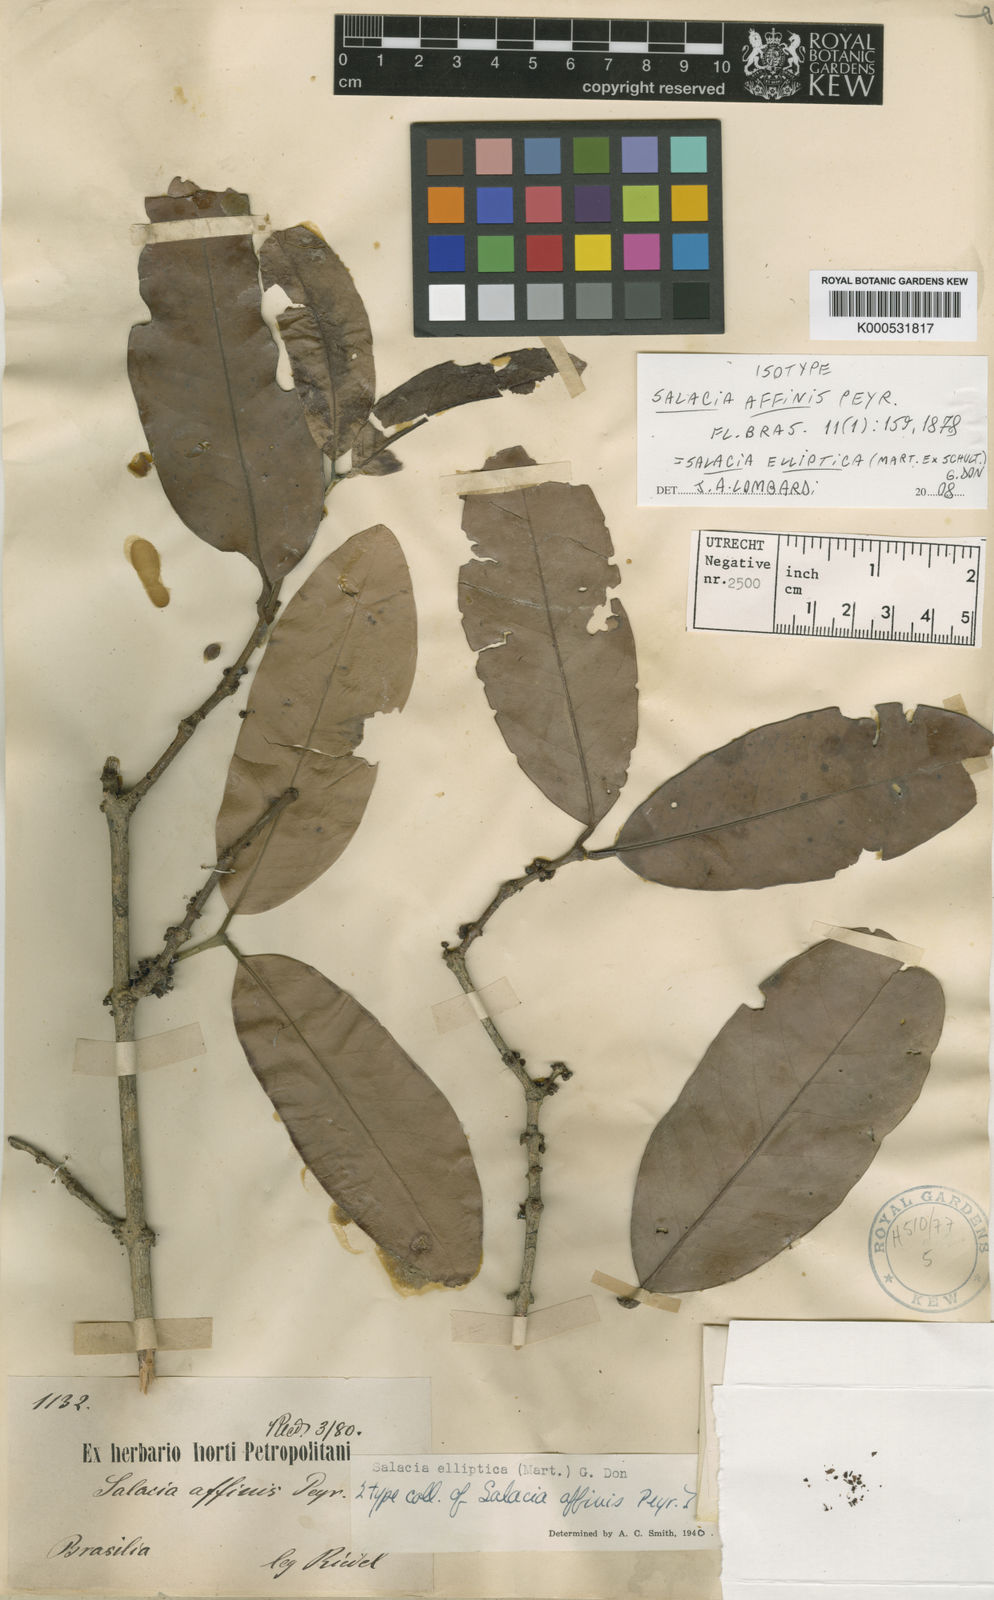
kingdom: Plantae
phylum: Tracheophyta
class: Magnoliopsida
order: Celastrales
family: Celastraceae
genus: Salacia
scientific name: Salacia elliptica
